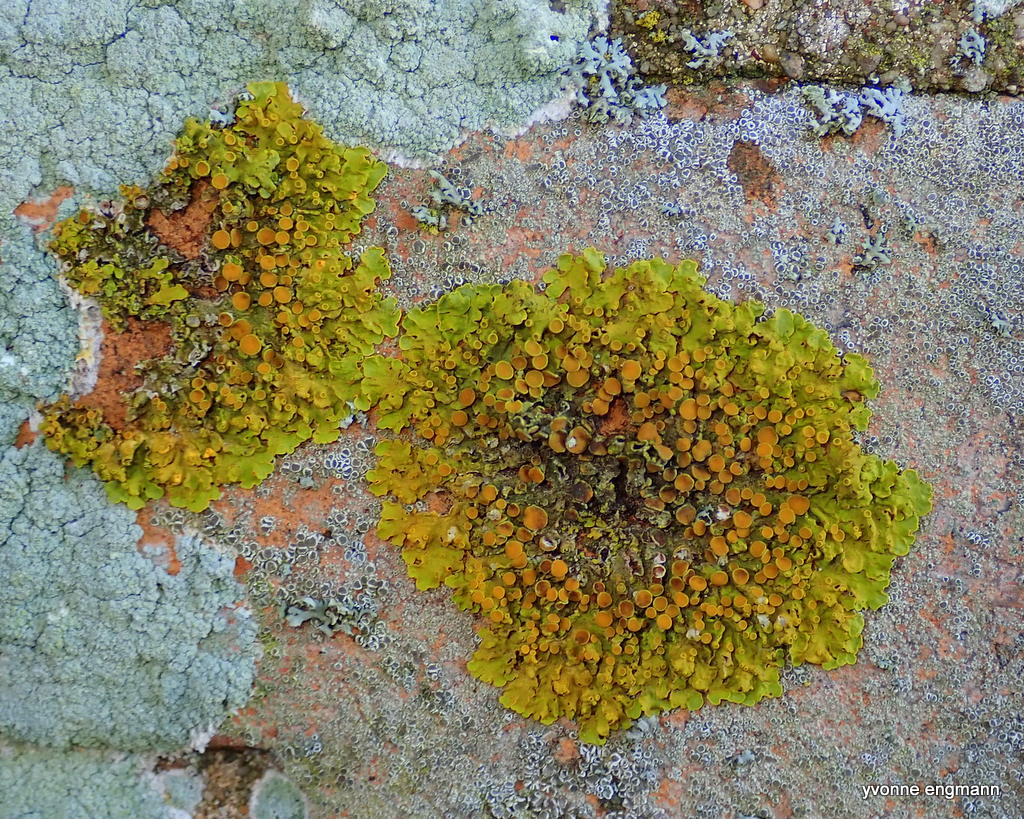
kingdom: Fungi
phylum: Ascomycota
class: Lecanoromycetes
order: Teloschistales
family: Teloschistaceae
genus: Xanthoria
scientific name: Xanthoria parietina
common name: almindelig væggelav
